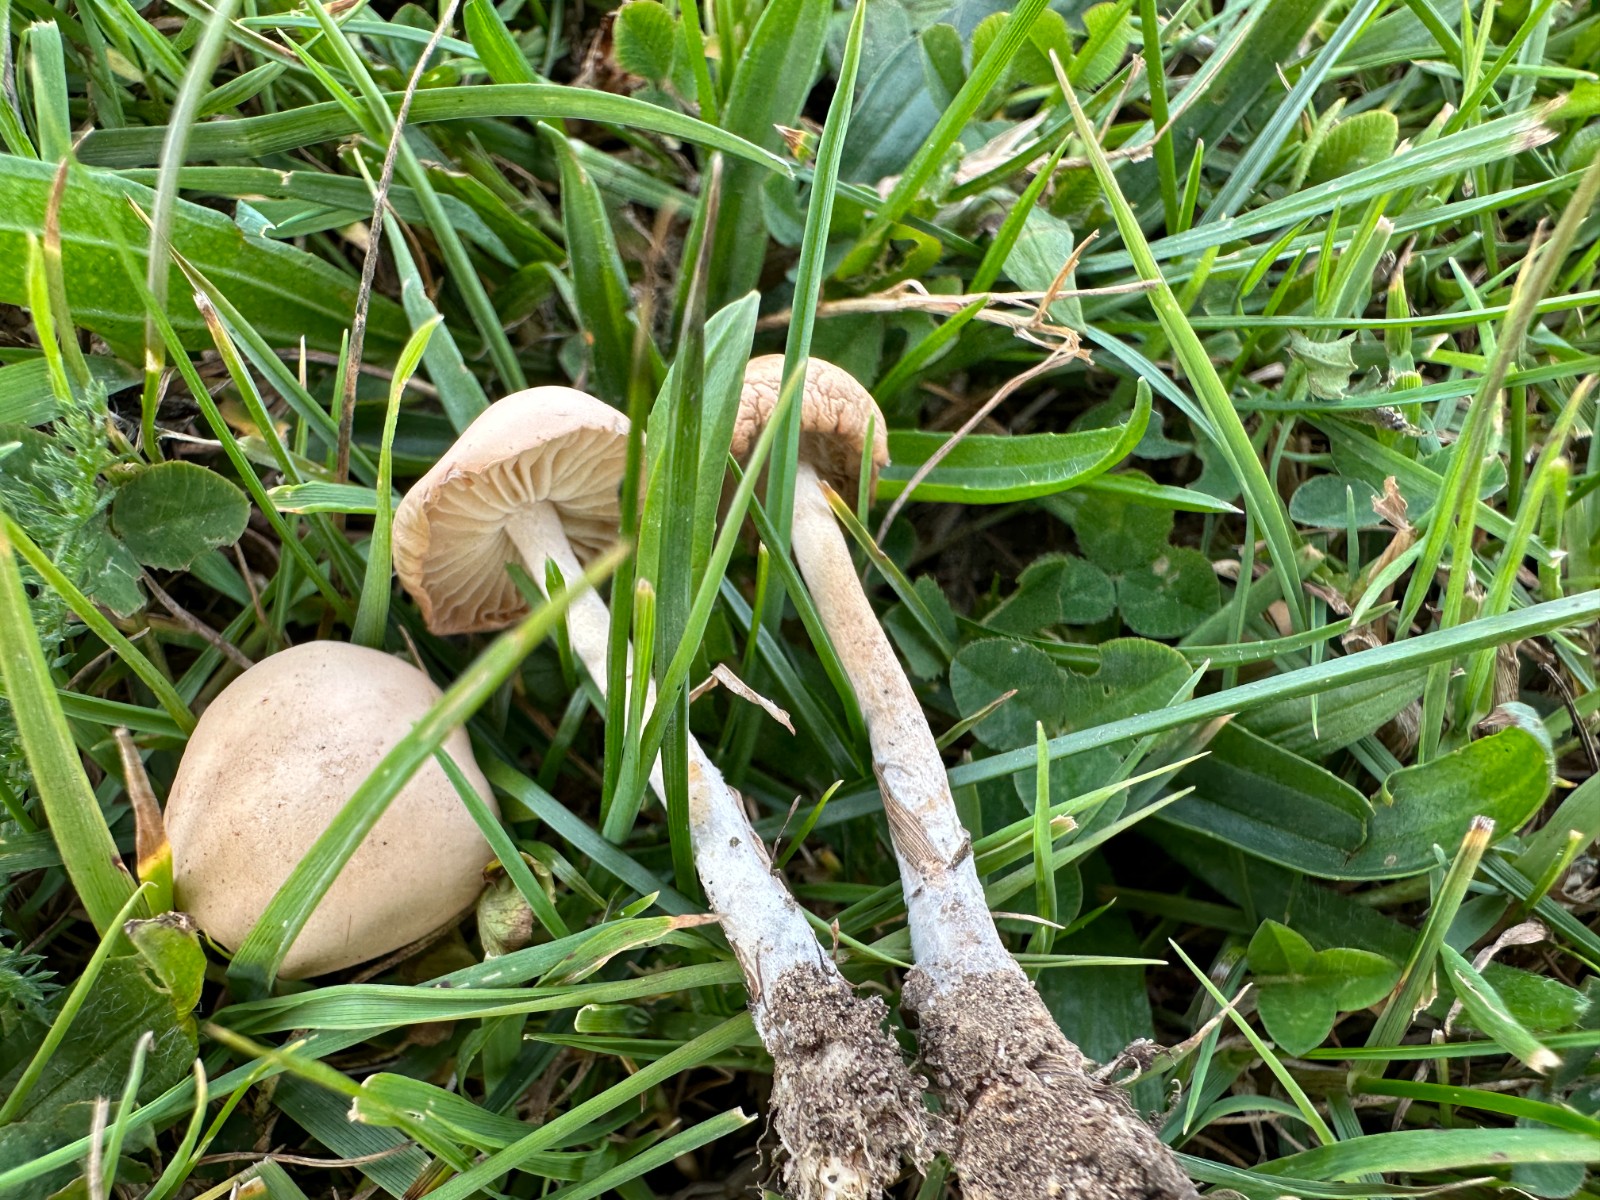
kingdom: Fungi
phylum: Basidiomycota
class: Agaricomycetes
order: Agaricales
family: Marasmiaceae
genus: Marasmius
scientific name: Marasmius oreades
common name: elledans-bruskhat
